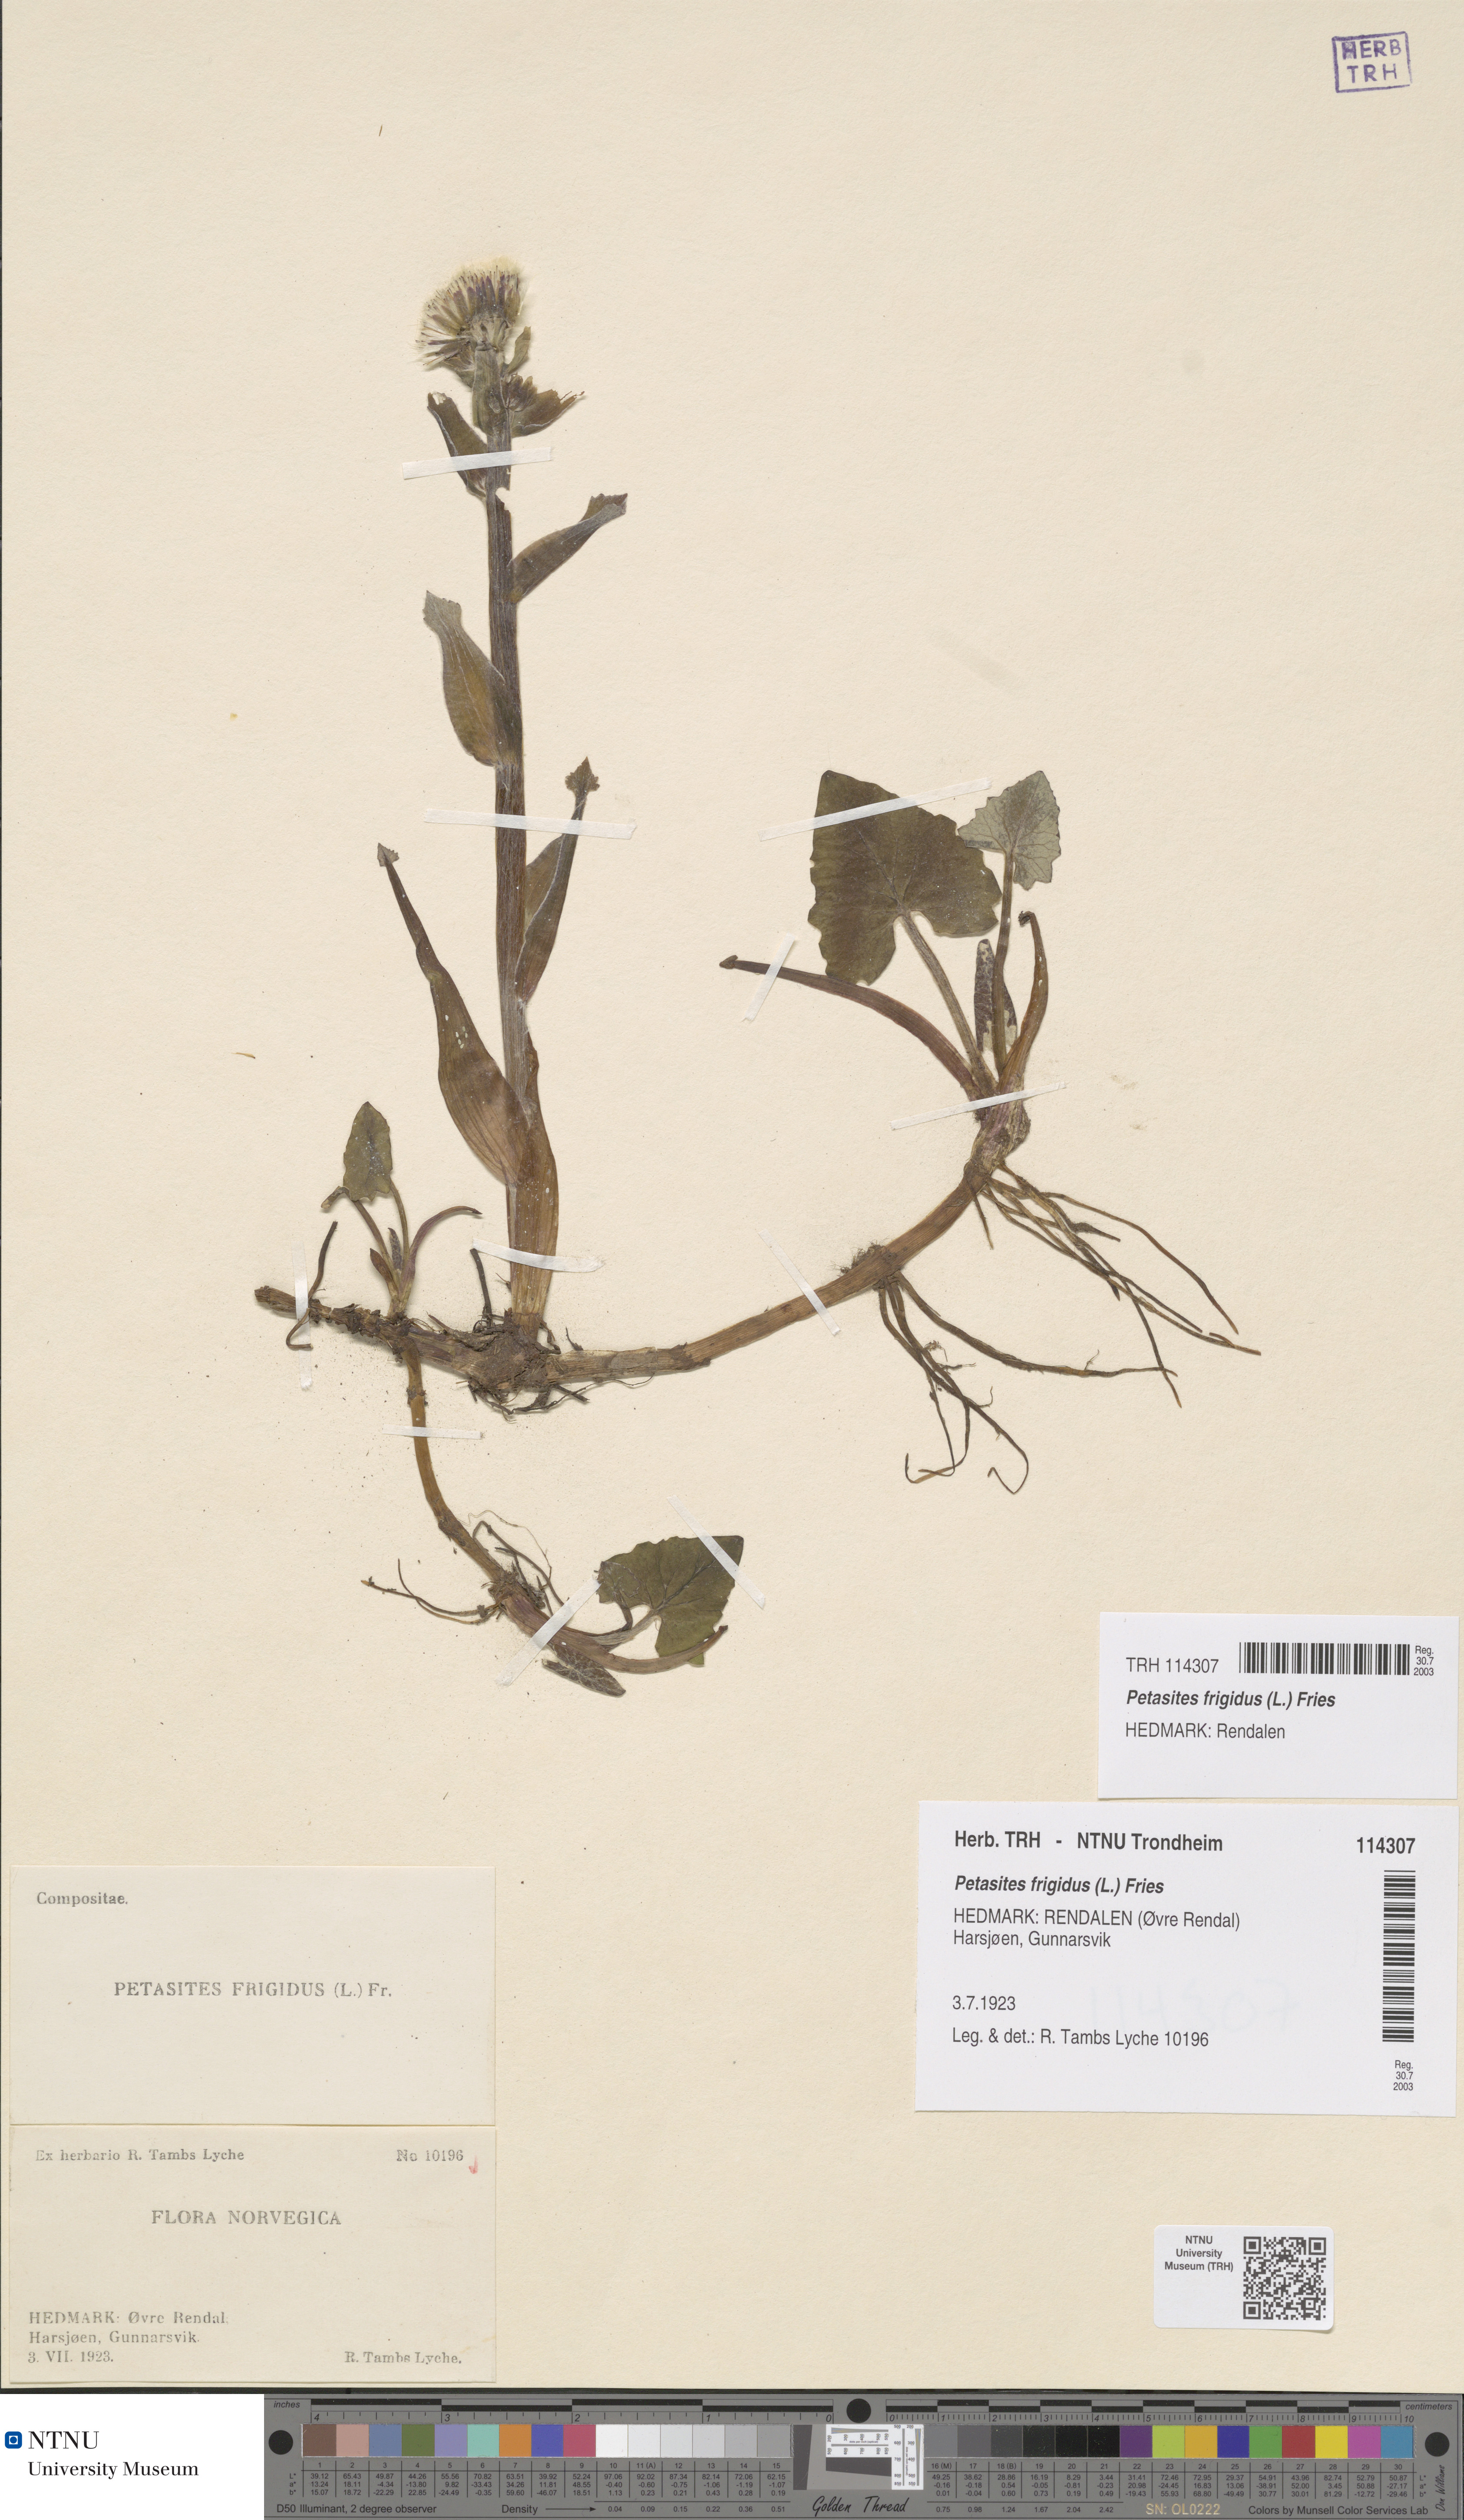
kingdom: Plantae
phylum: Tracheophyta
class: Magnoliopsida
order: Asterales
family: Asteraceae
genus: Petasites
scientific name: Petasites frigidus
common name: Arctic butterbur
